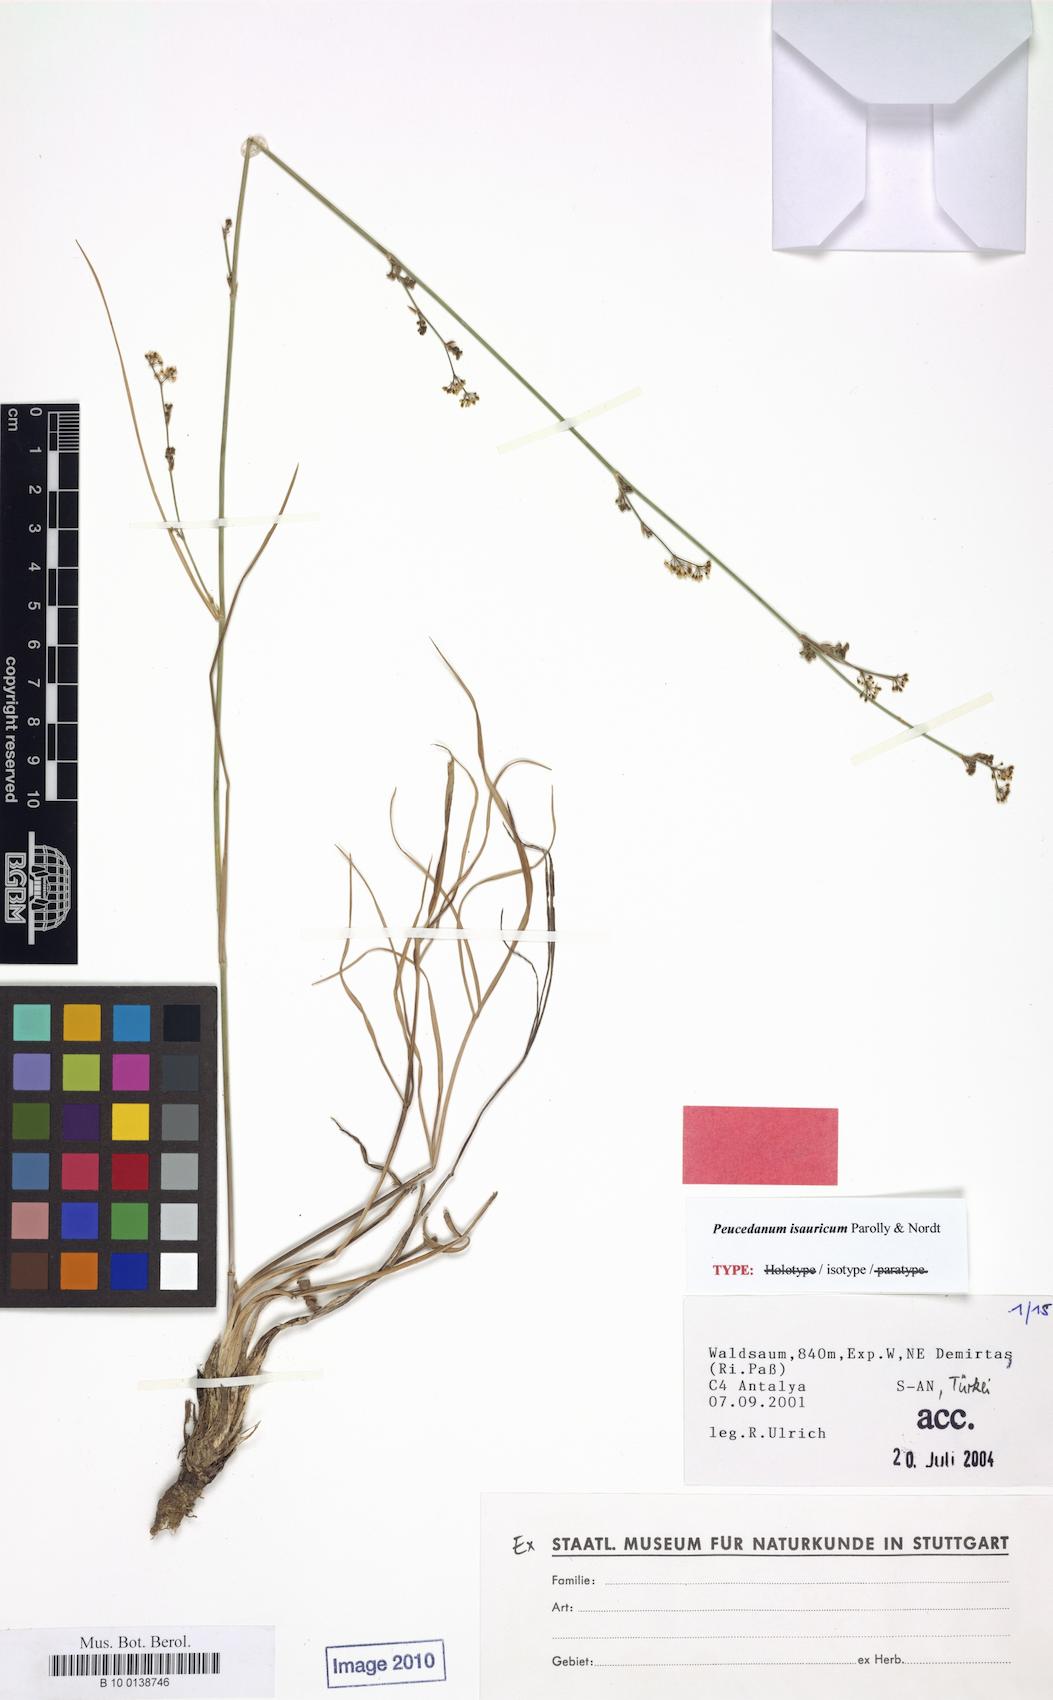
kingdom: Plantae
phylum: Tracheophyta
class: Magnoliopsida
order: Apiales
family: Apiaceae
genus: Dichoropetalum
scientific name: Dichoropetalum isauricum
